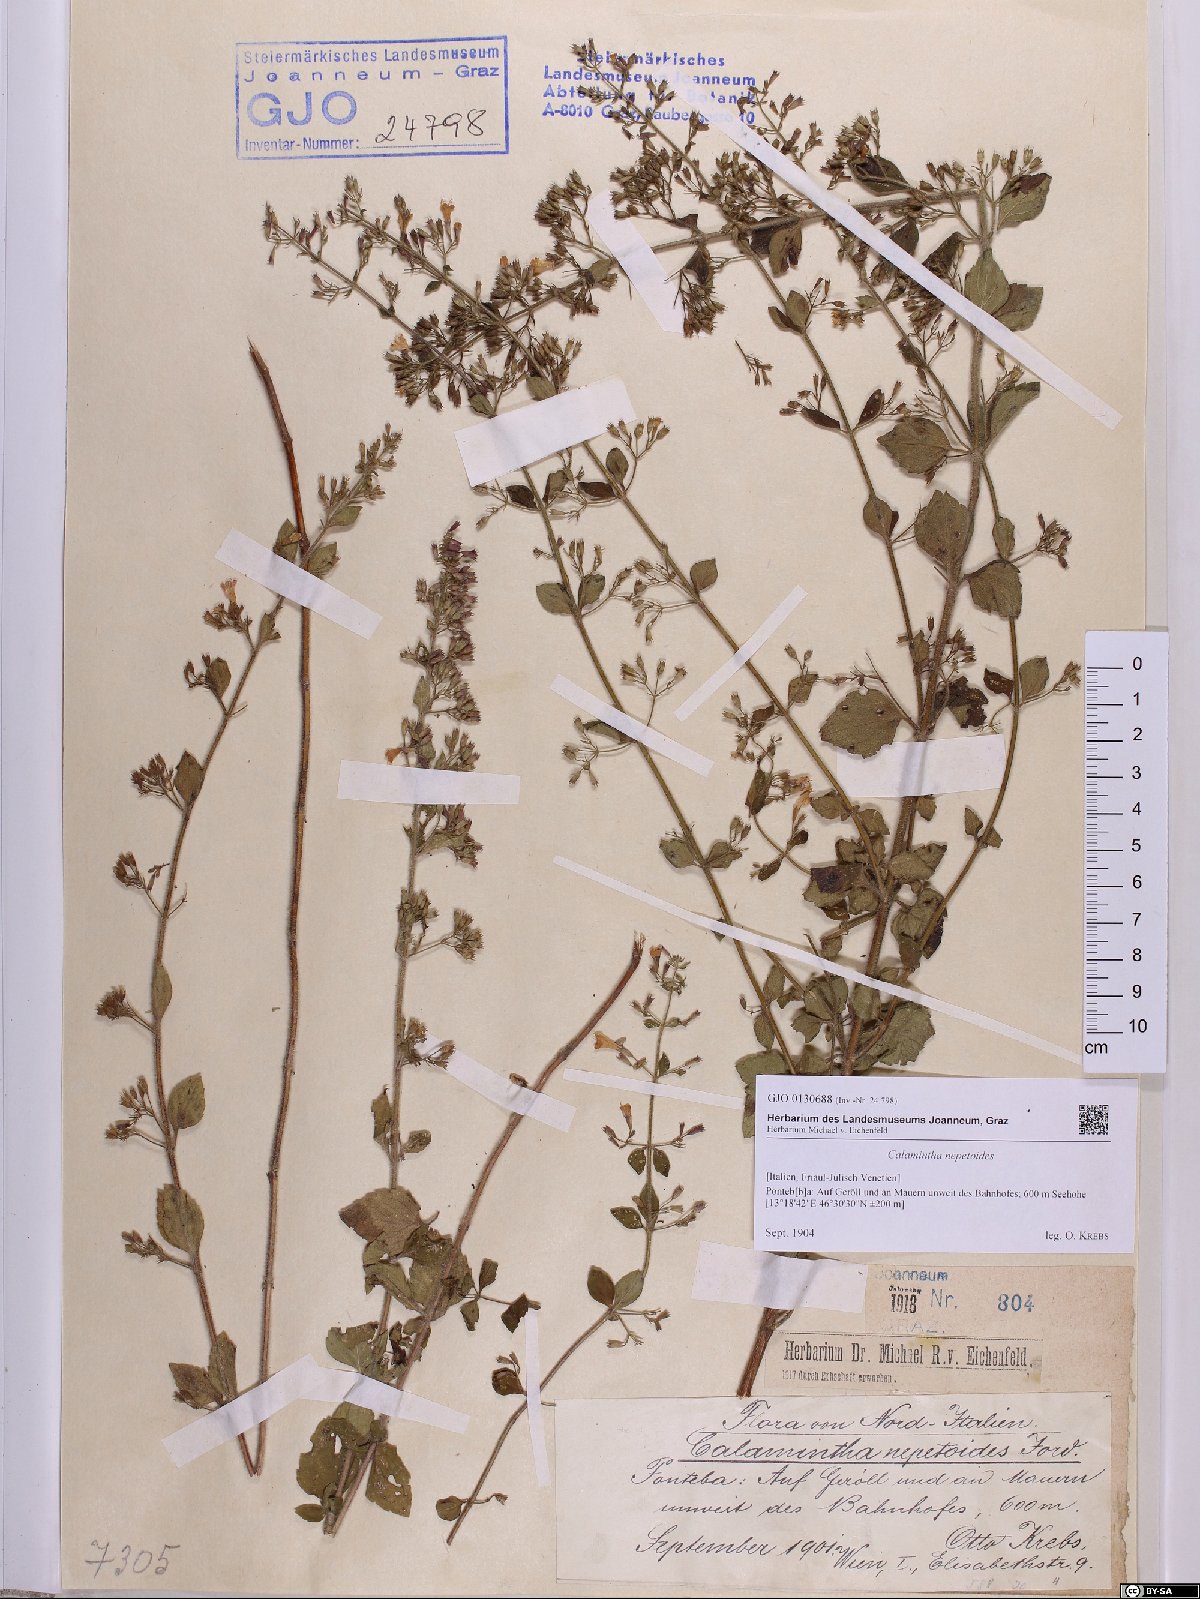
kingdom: Plantae
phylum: Tracheophyta
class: Magnoliopsida
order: Lamiales
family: Lamiaceae
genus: Clinopodium
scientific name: Clinopodium nepeta
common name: Lesser calamint
